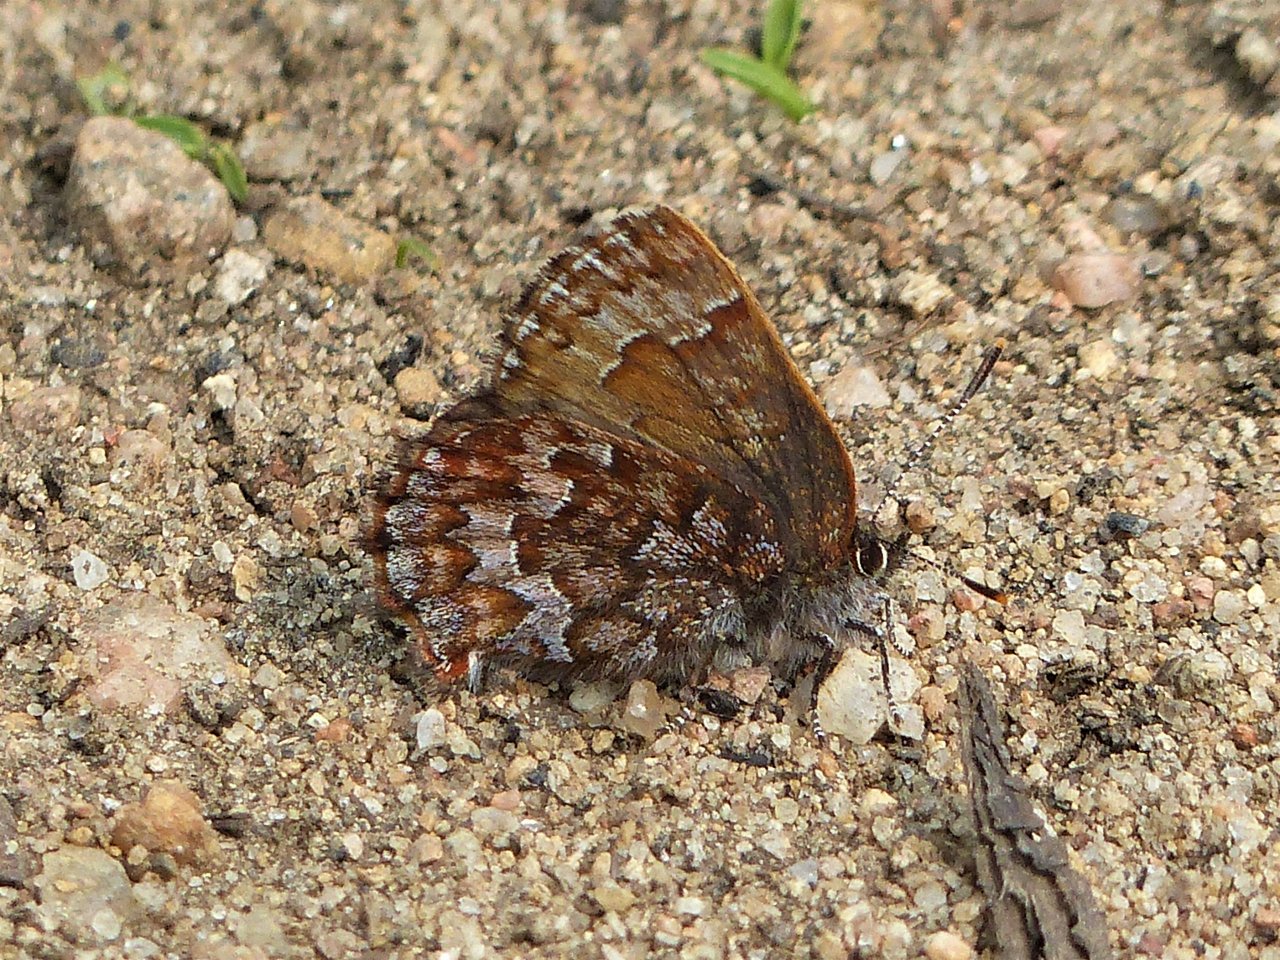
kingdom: Animalia
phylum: Arthropoda
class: Insecta
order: Lepidoptera
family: Lycaenidae
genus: Incisalia
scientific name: Incisalia niphon
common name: Eastern Pine Elfin
